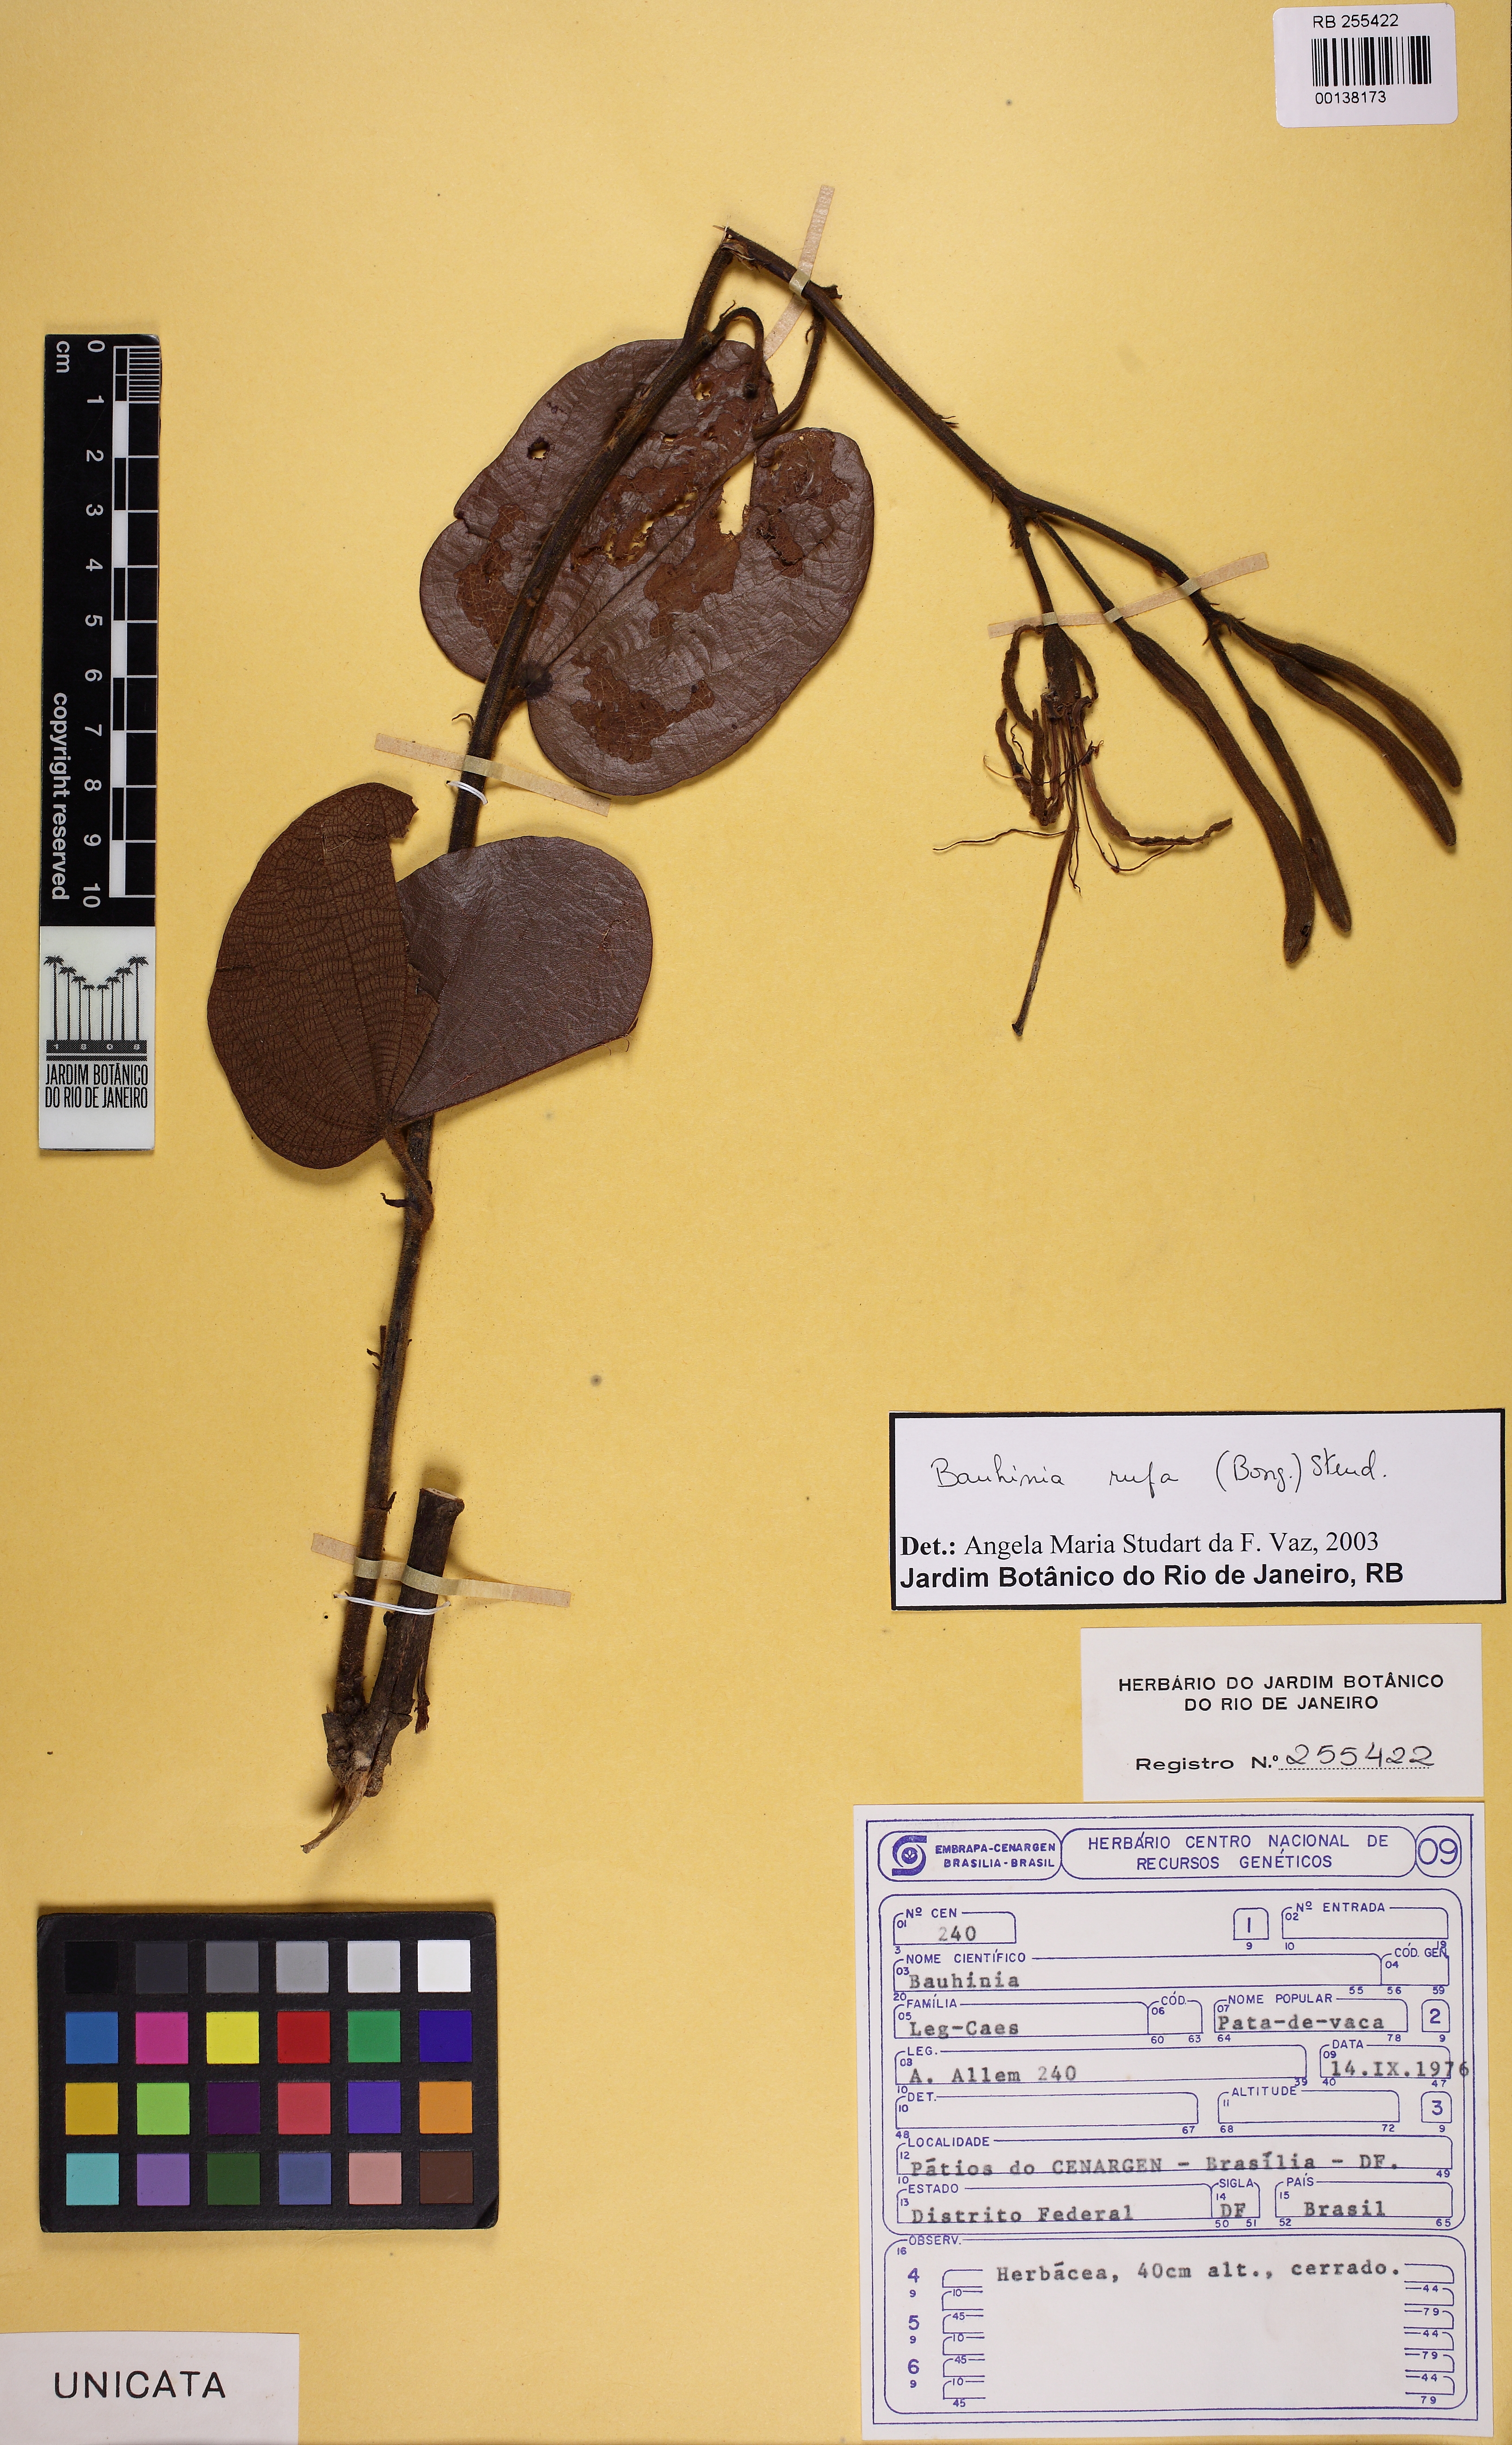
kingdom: Plantae
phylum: Tracheophyta
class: Magnoliopsida
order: Fabales
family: Fabaceae
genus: Bauhinia
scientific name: Bauhinia rufa
